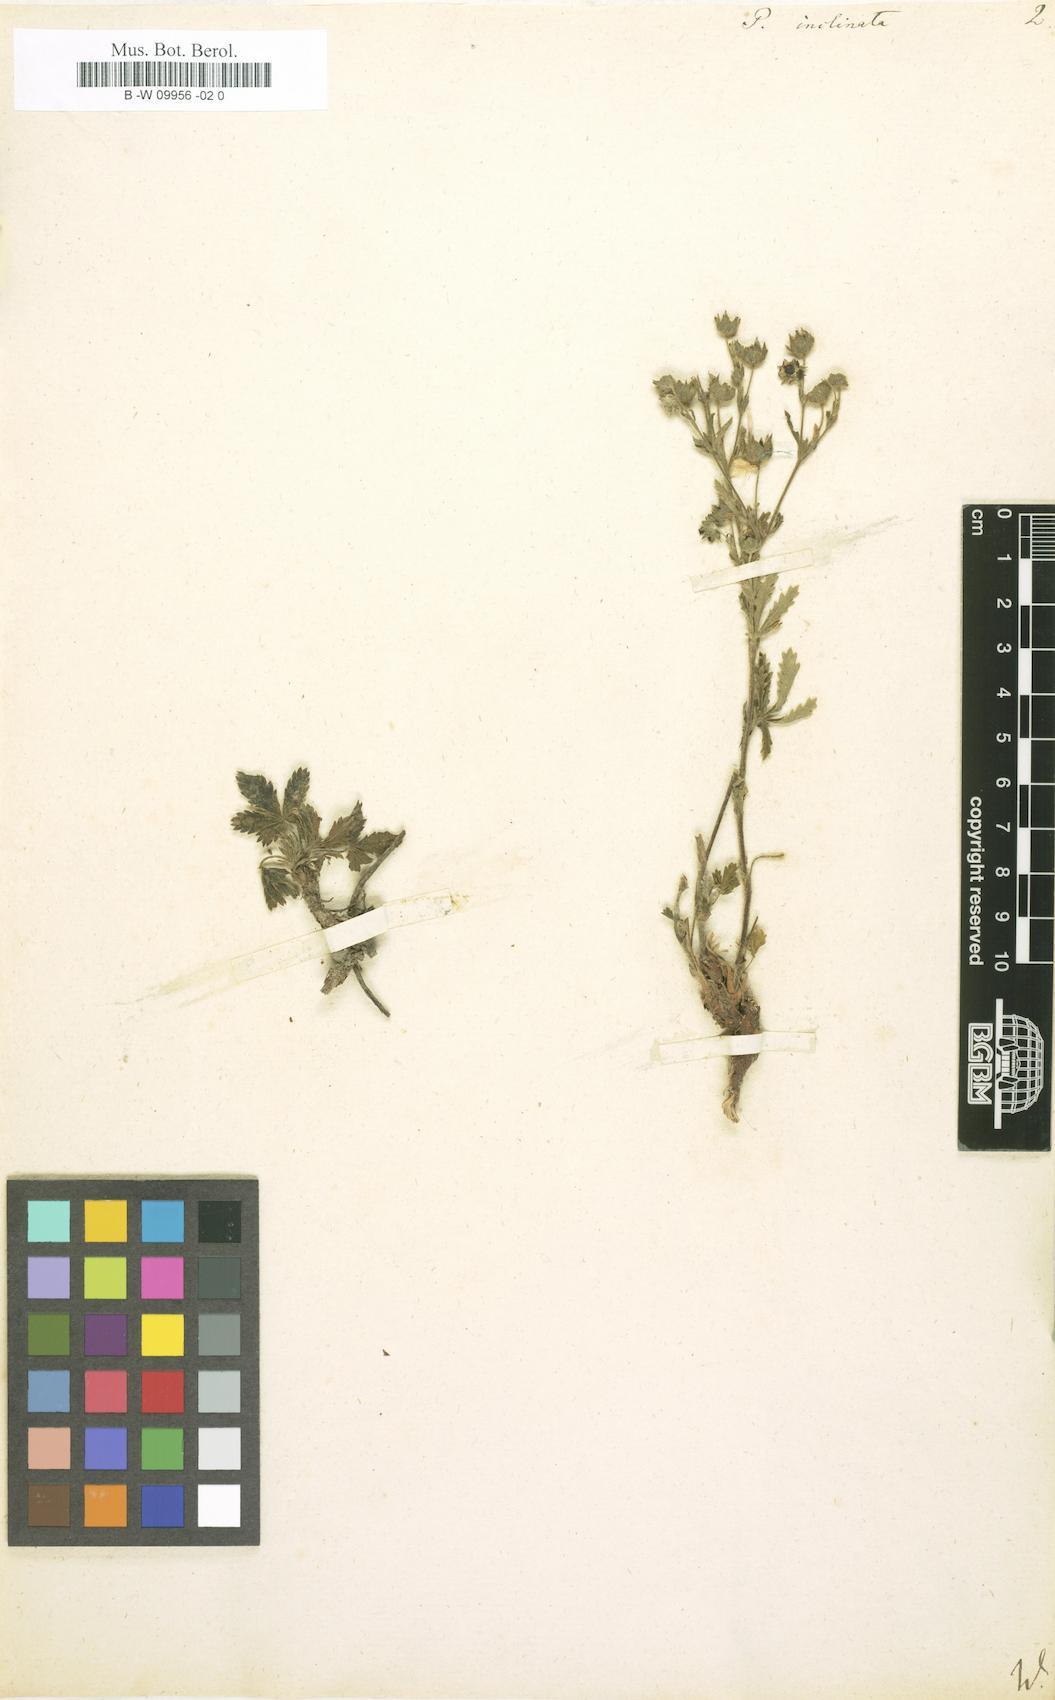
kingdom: Plantae
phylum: Tracheophyta
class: Magnoliopsida
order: Rosales
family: Rosaceae
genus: Potentilla
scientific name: Potentilla inclinata
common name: Grey cinquefoil
